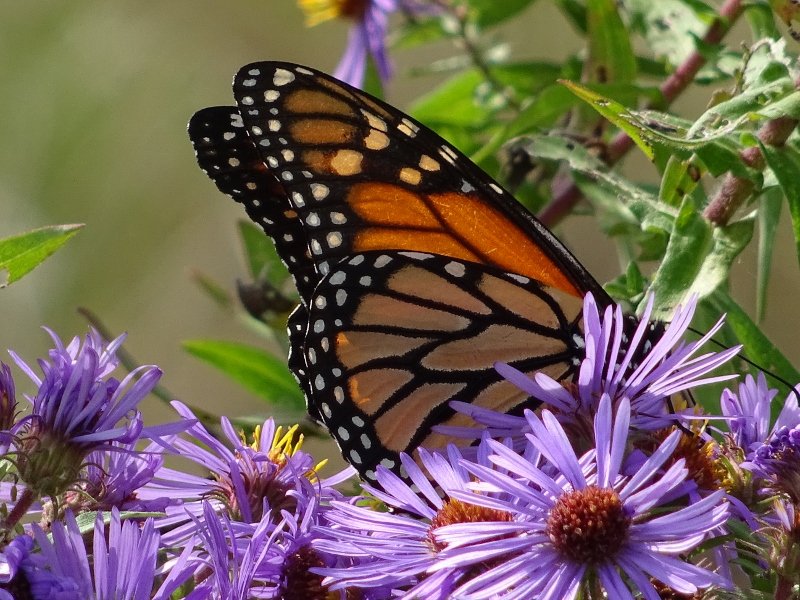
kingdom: Animalia
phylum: Arthropoda
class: Insecta
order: Lepidoptera
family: Nymphalidae
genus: Danaus
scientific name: Danaus plexippus
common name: Monarch
